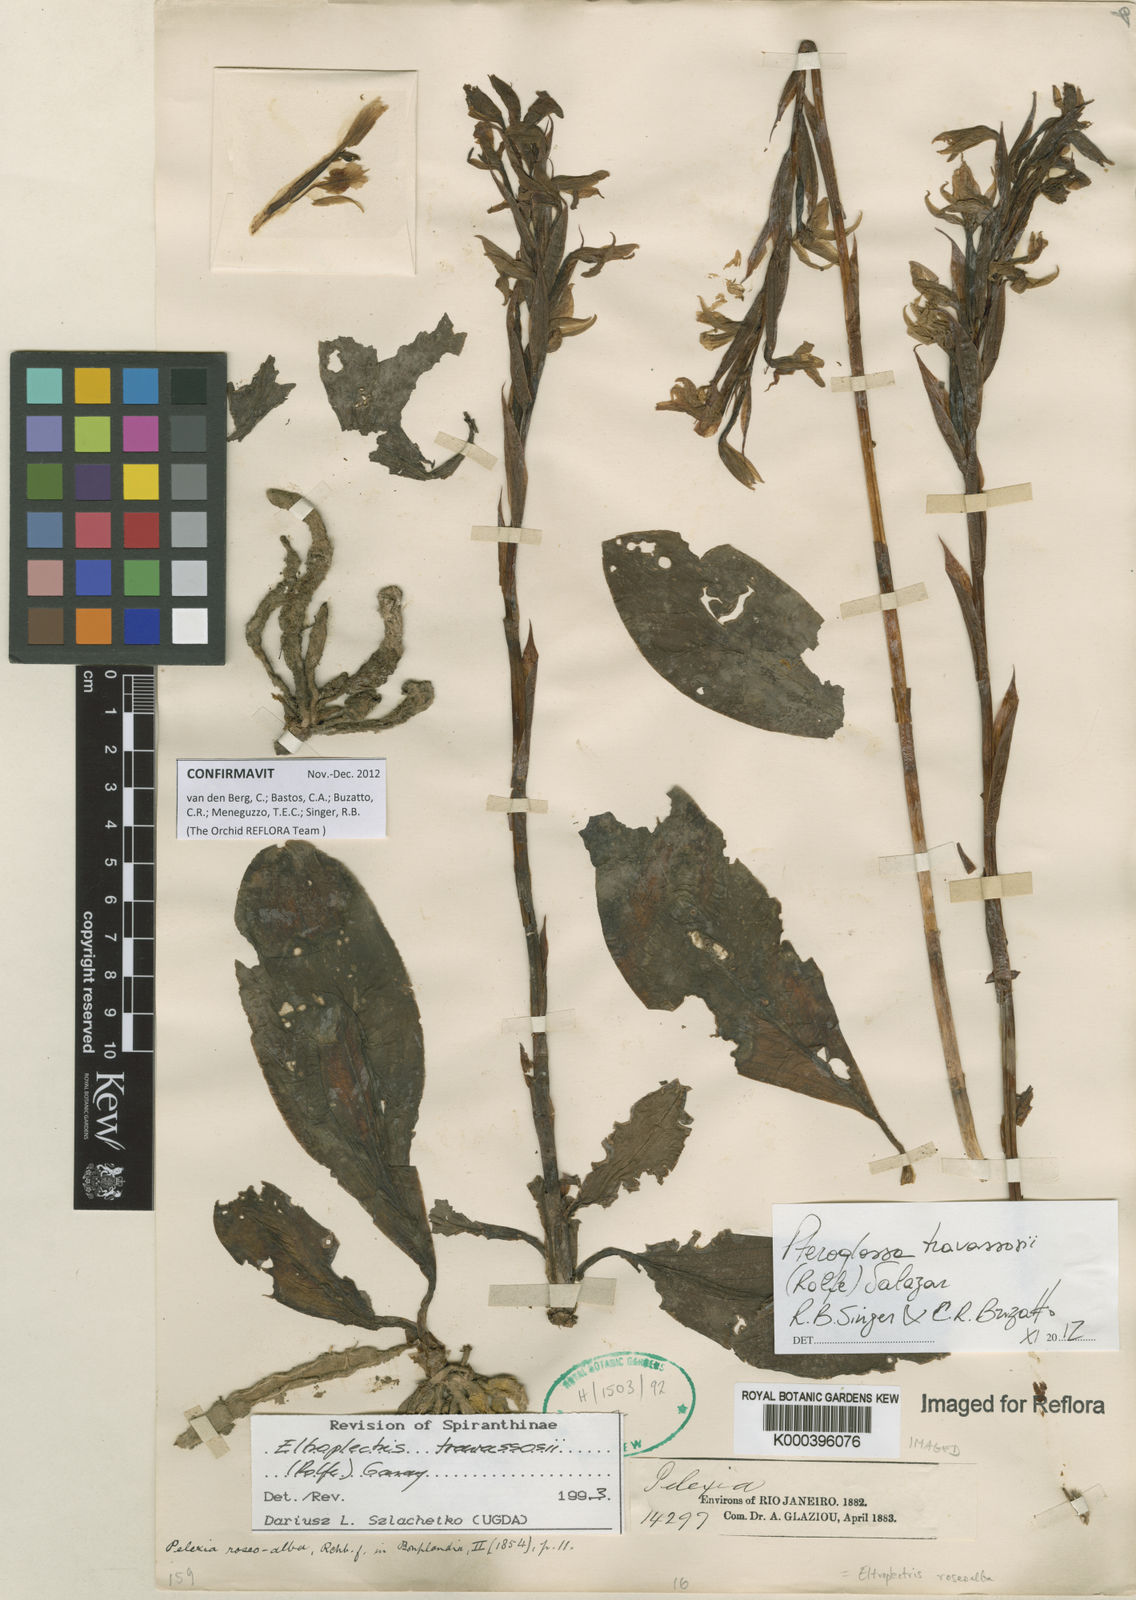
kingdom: Plantae
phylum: Tracheophyta
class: Liliopsida
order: Asparagales
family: Orchidaceae
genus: Pteroglossa
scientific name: Pteroglossa roseoalba
